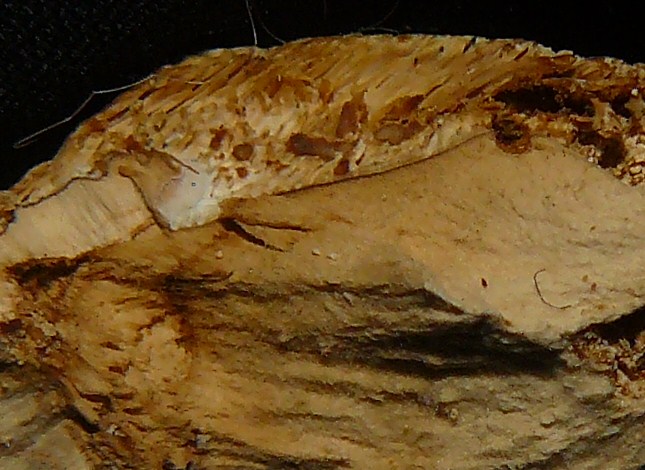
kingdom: Fungi
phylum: Basidiomycota
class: Agaricomycetes
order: Polyporales
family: Phanerochaetaceae
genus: Bjerkandera
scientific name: Bjerkandera fumosa
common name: grågul sodporesvamp
